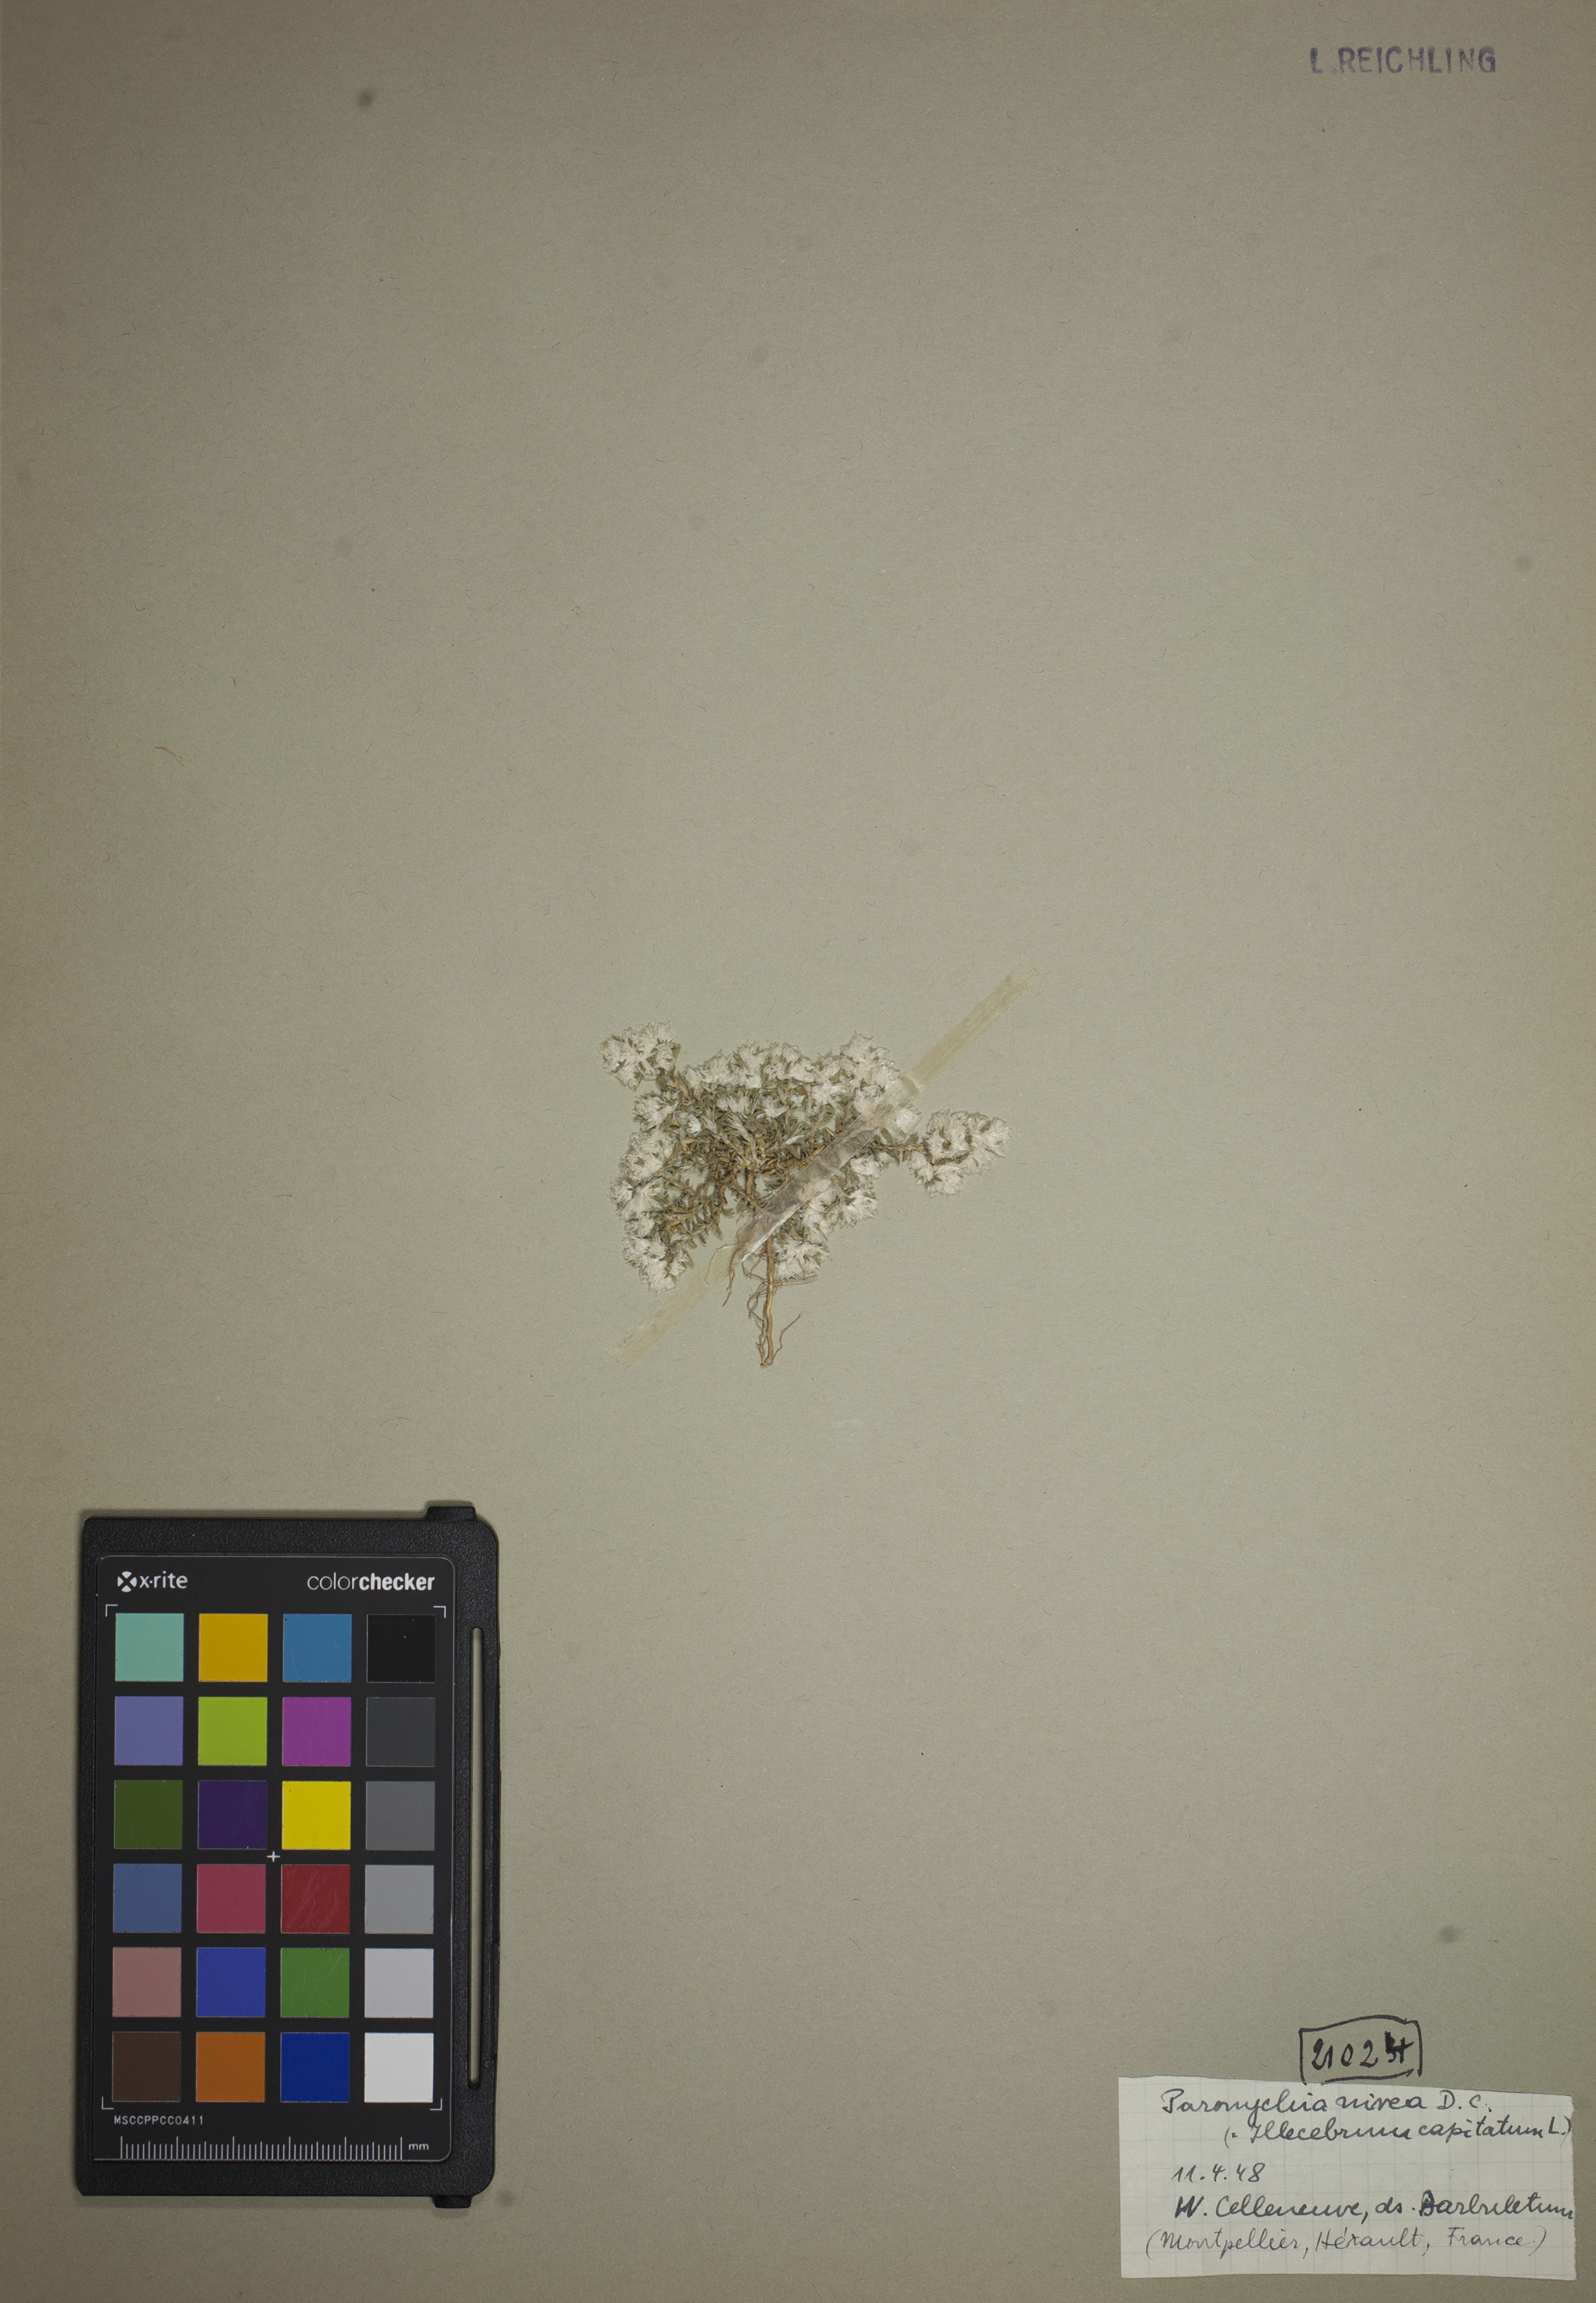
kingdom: Plantae
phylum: Tracheophyta
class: Magnoliopsida
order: Caryophyllales
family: Caryophyllaceae
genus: Paronychia
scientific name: Paronychia capitata
